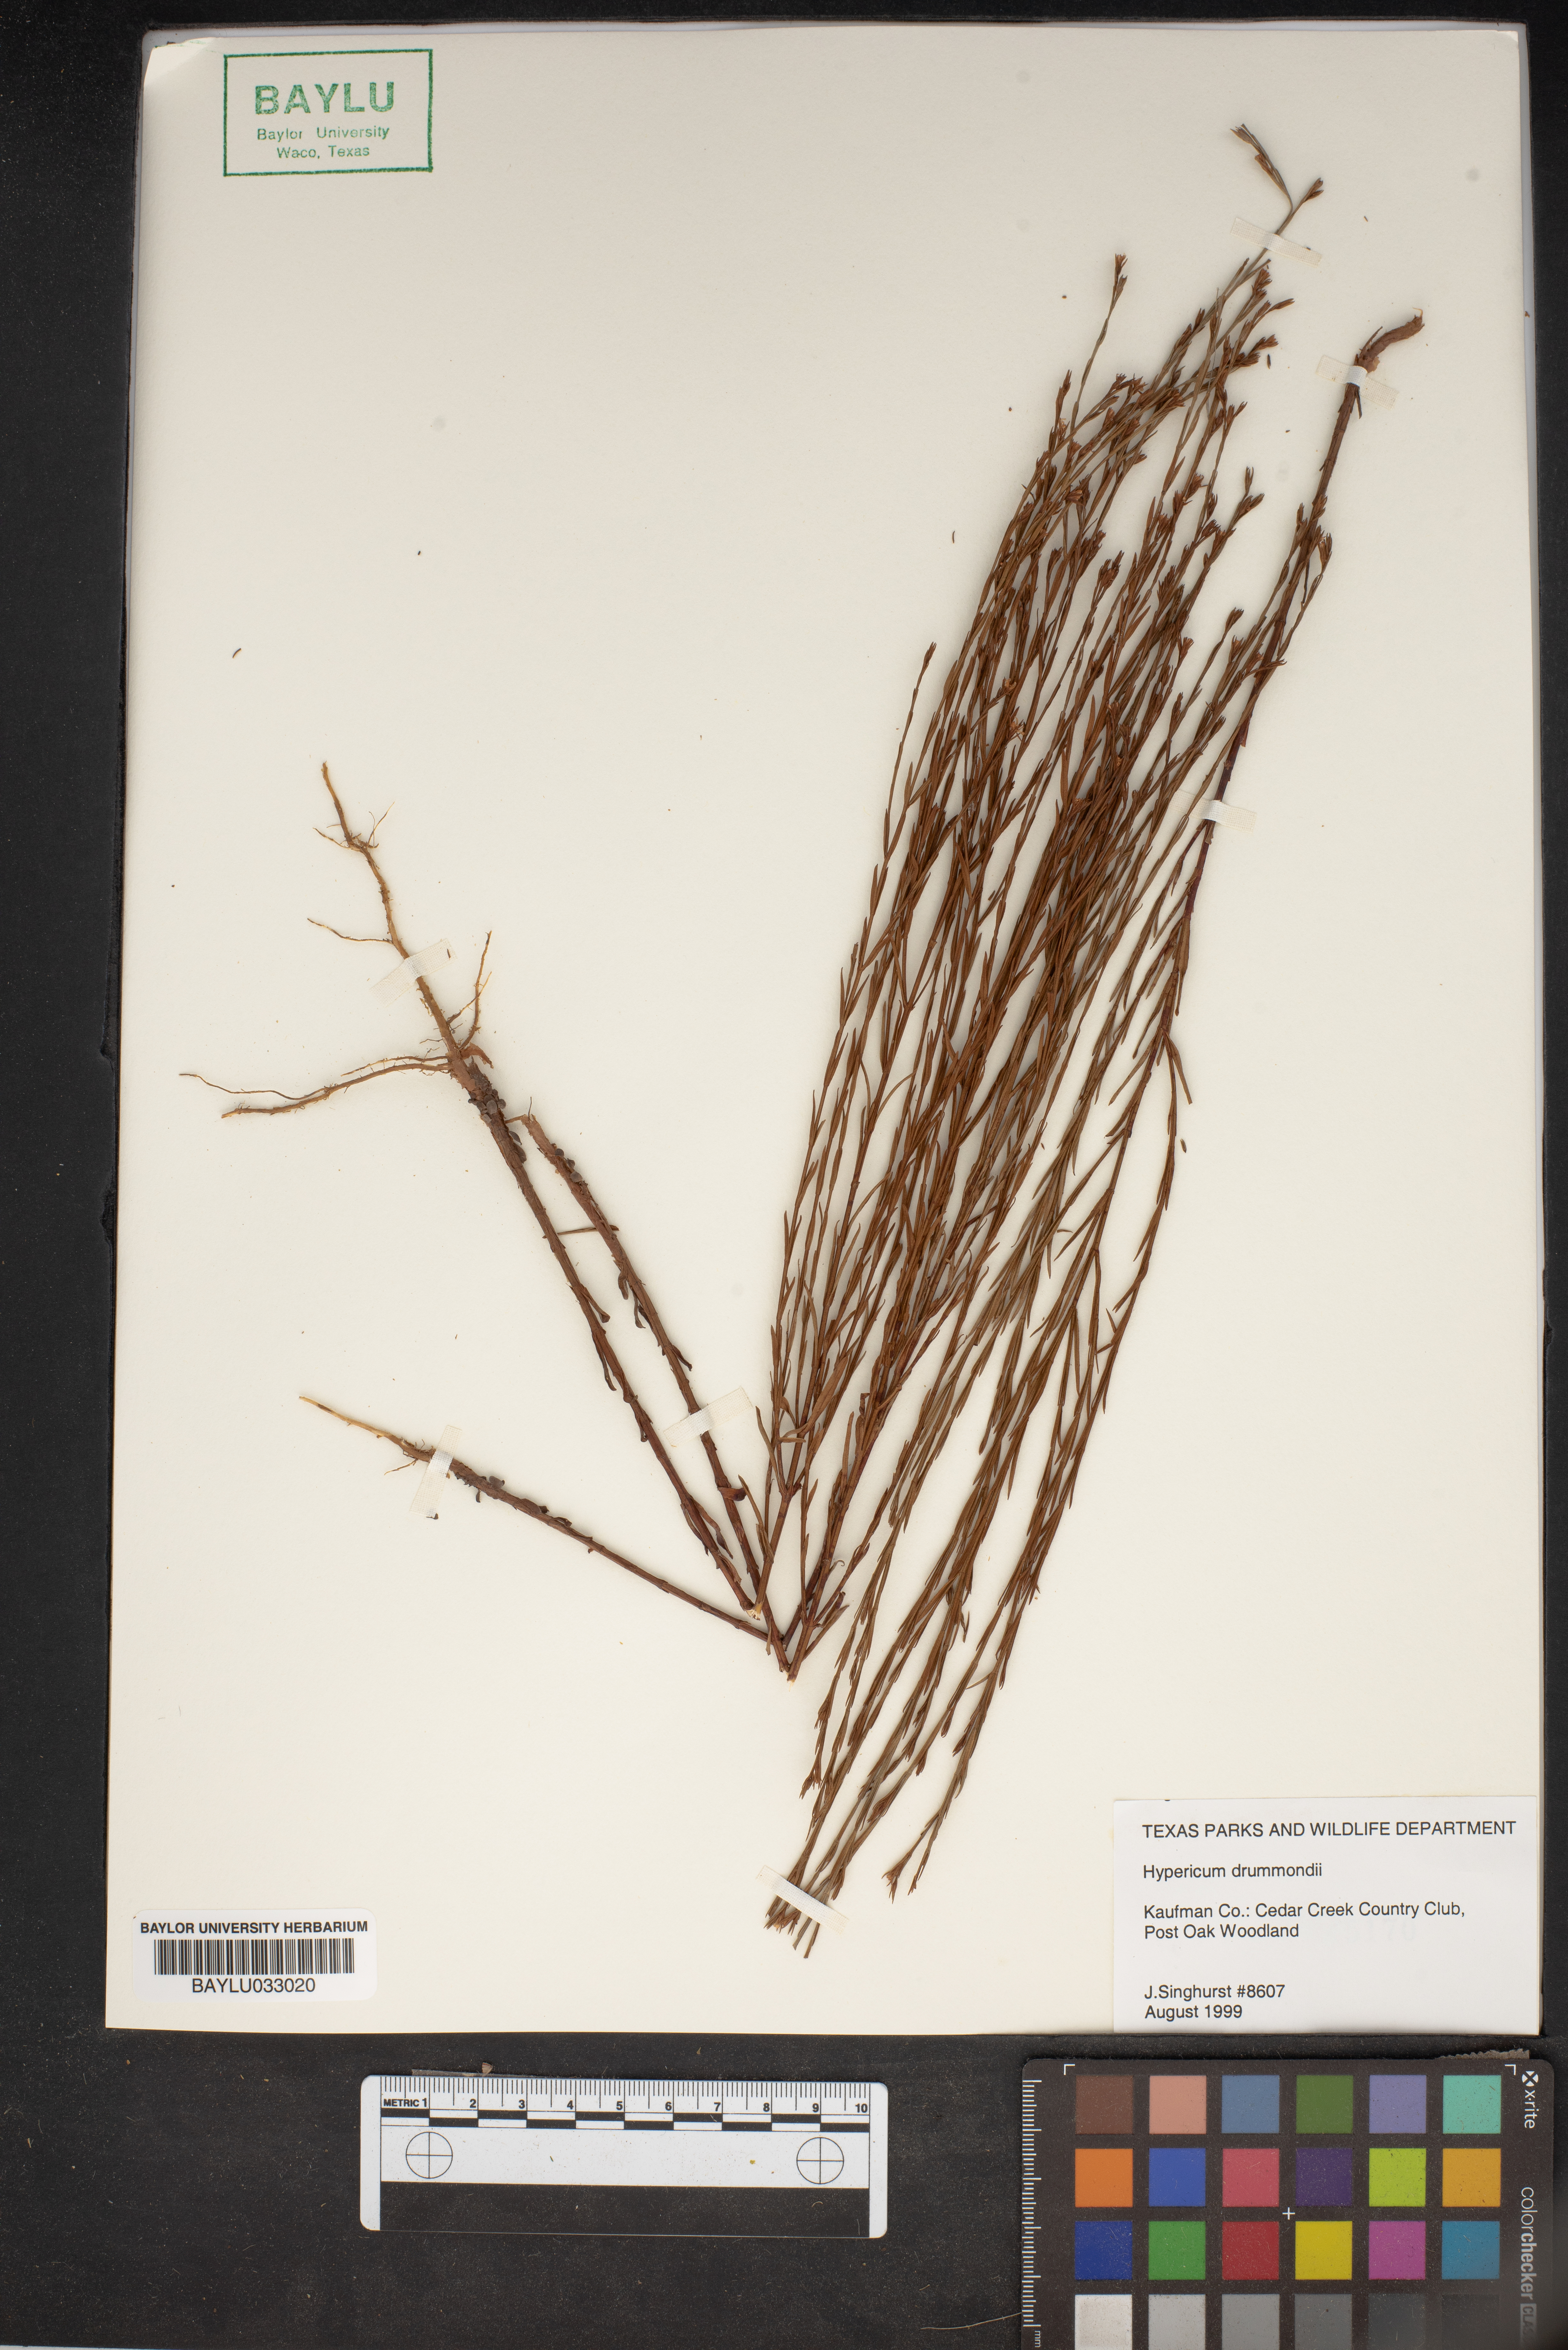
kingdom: Plantae
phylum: Tracheophyta
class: Magnoliopsida
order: Malpighiales
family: Hypericaceae
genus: Hypericum
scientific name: Hypericum drummondii
